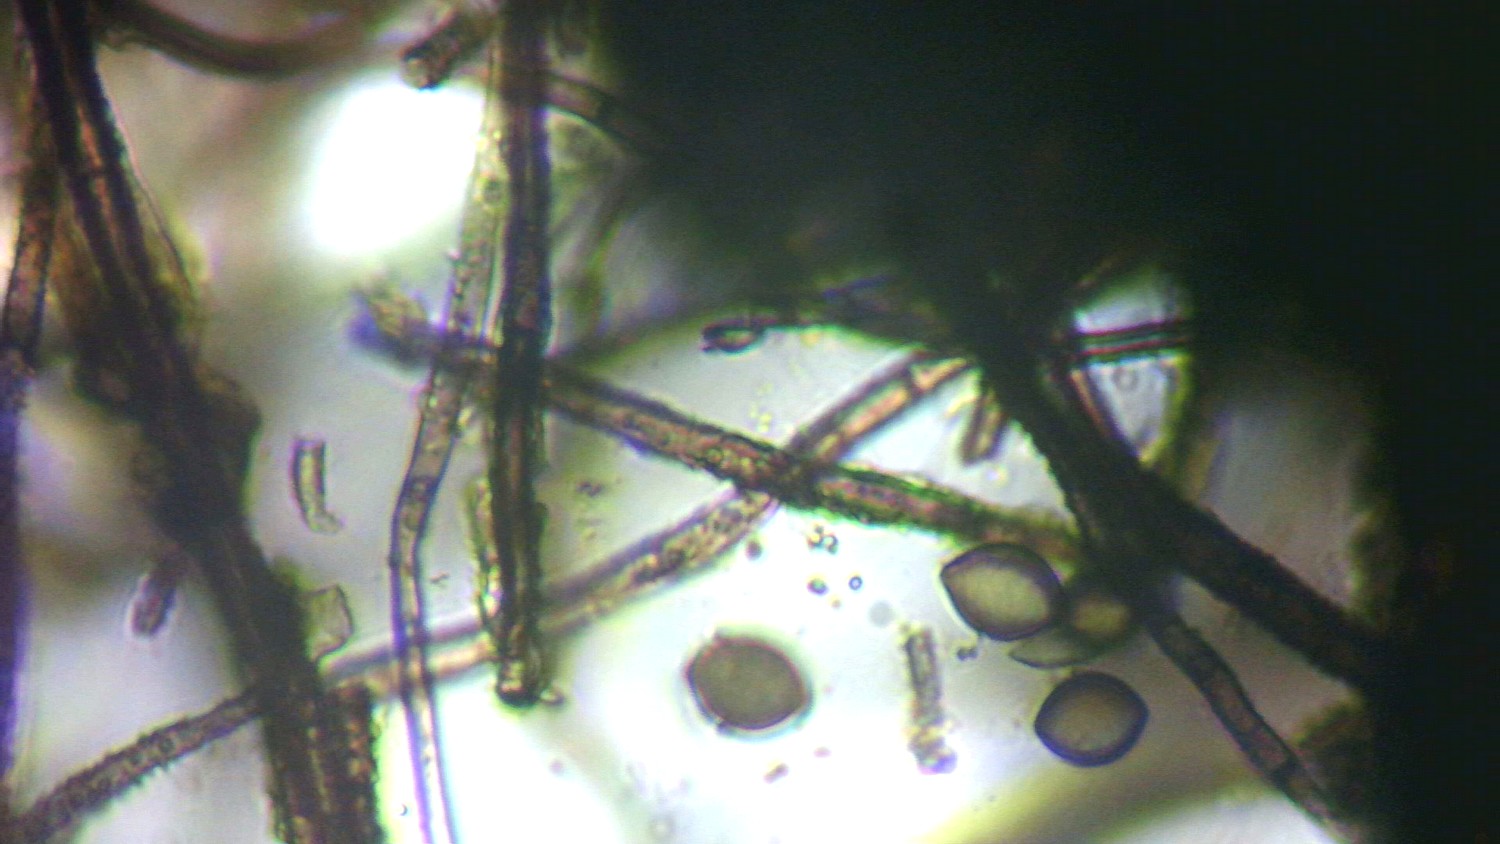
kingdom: Fungi
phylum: Ascomycota
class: Sordariomycetes
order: Sordariales
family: Chaetomiaceae
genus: Chaetomium
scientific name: Chaetomium globosum
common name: gulgrøn søjlekerne
